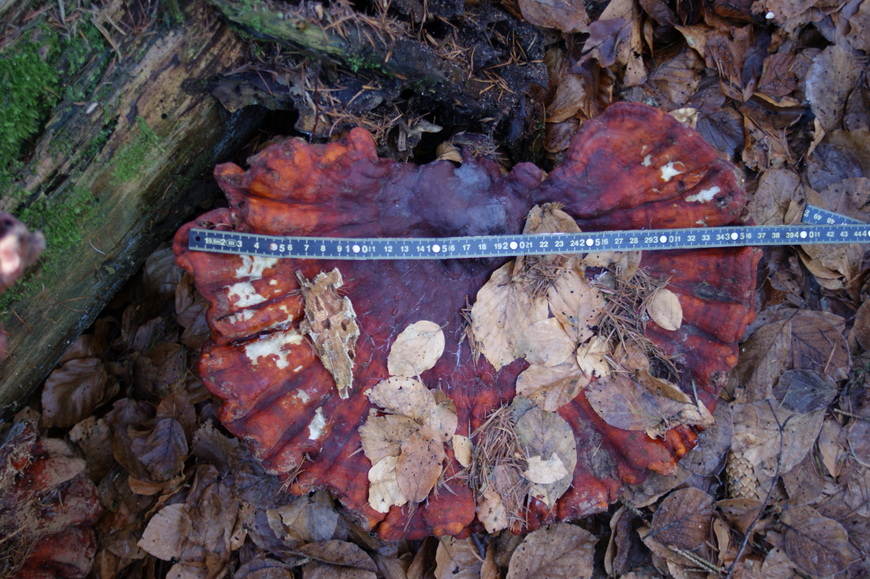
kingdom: Fungi
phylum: Basidiomycota
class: Agaricomycetes
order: Polyporales
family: Polyporaceae
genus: Ganoderma
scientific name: Ganoderma lucidum
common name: skinnende lakporesvamp
